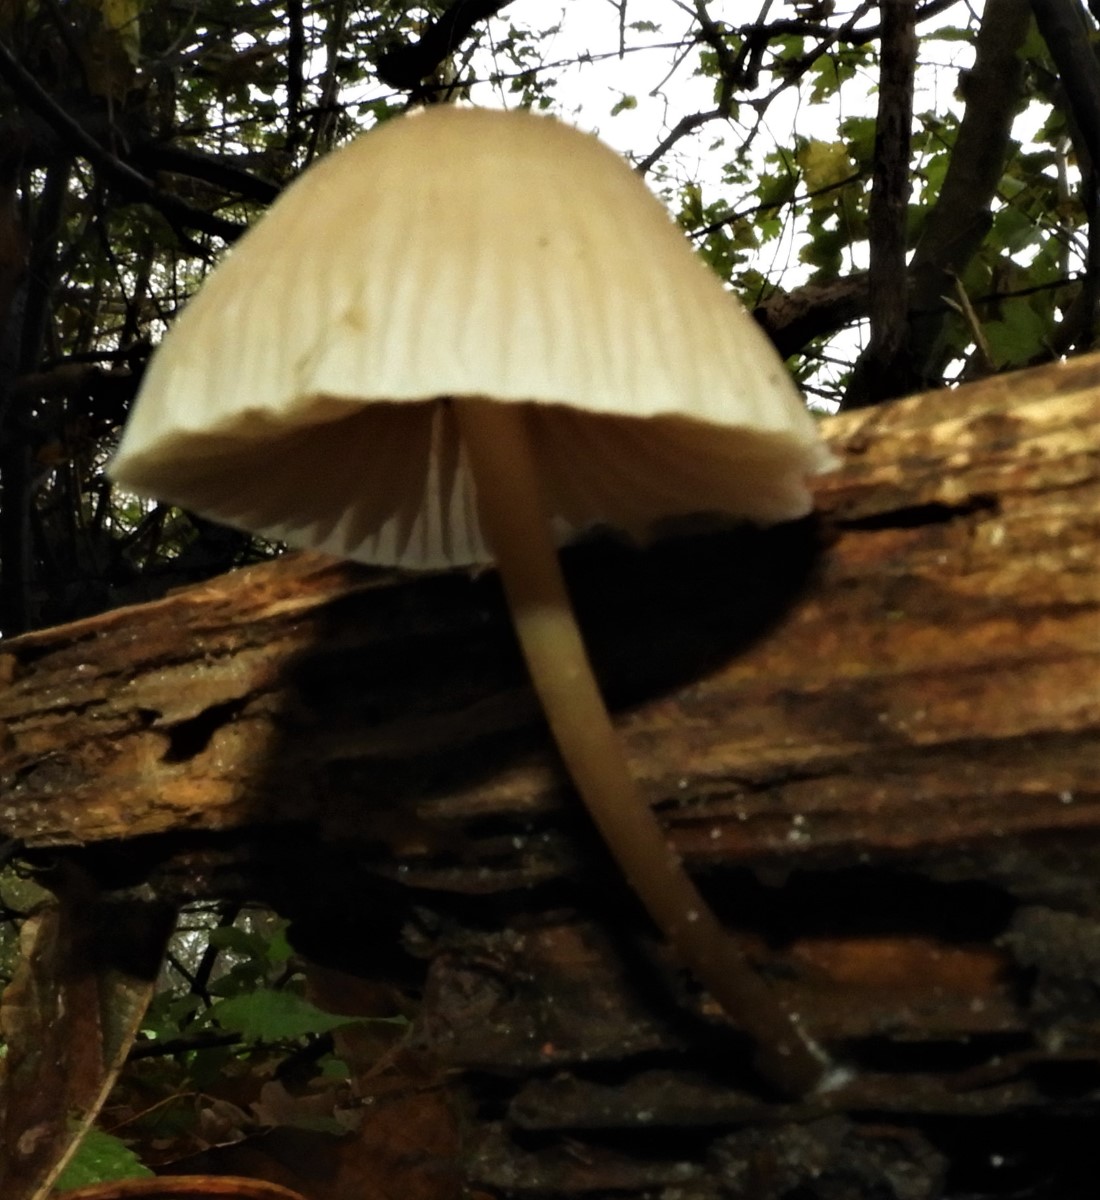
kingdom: Fungi
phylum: Basidiomycota
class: Agaricomycetes
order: Agaricales
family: Mycenaceae
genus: Mycena
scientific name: Mycena
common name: huesvamp
